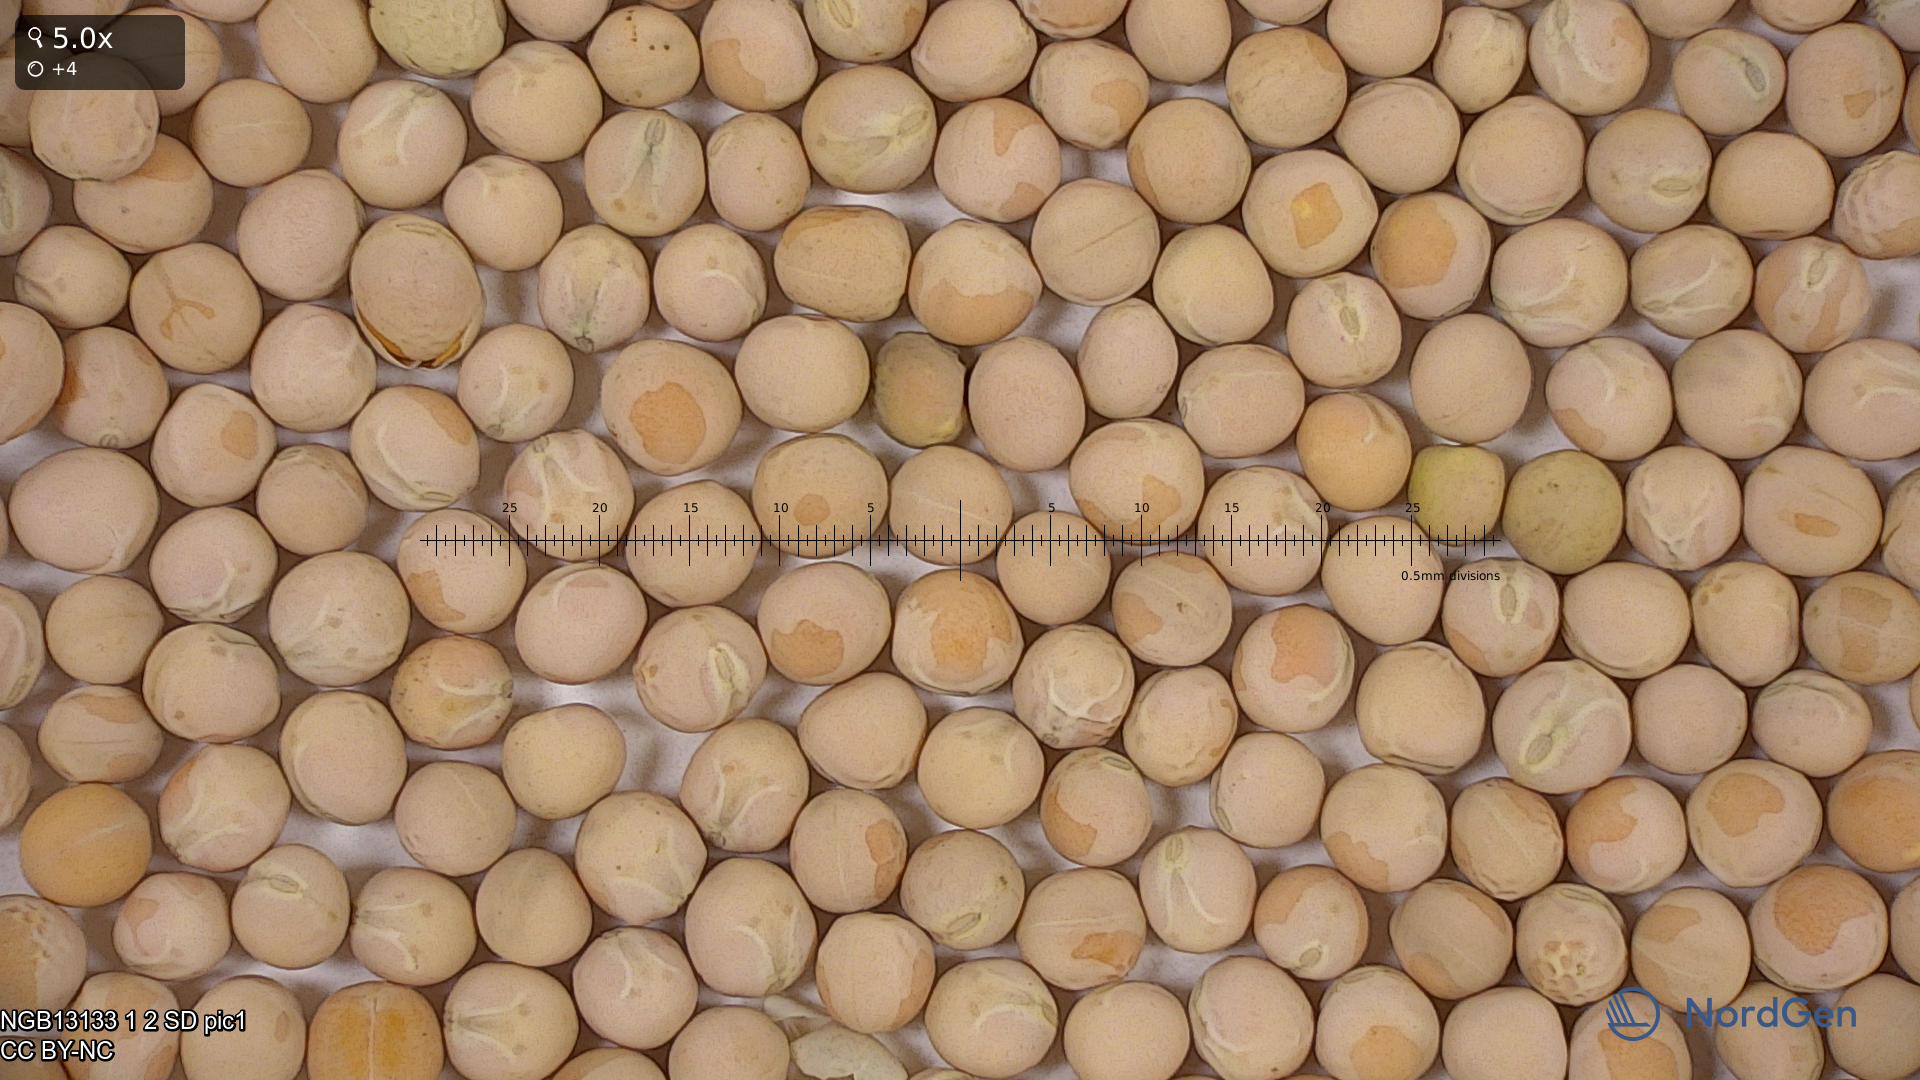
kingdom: Plantae
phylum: Tracheophyta
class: Magnoliopsida
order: Fabales
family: Fabaceae
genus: Lathyrus
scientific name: Lathyrus oleraceus
